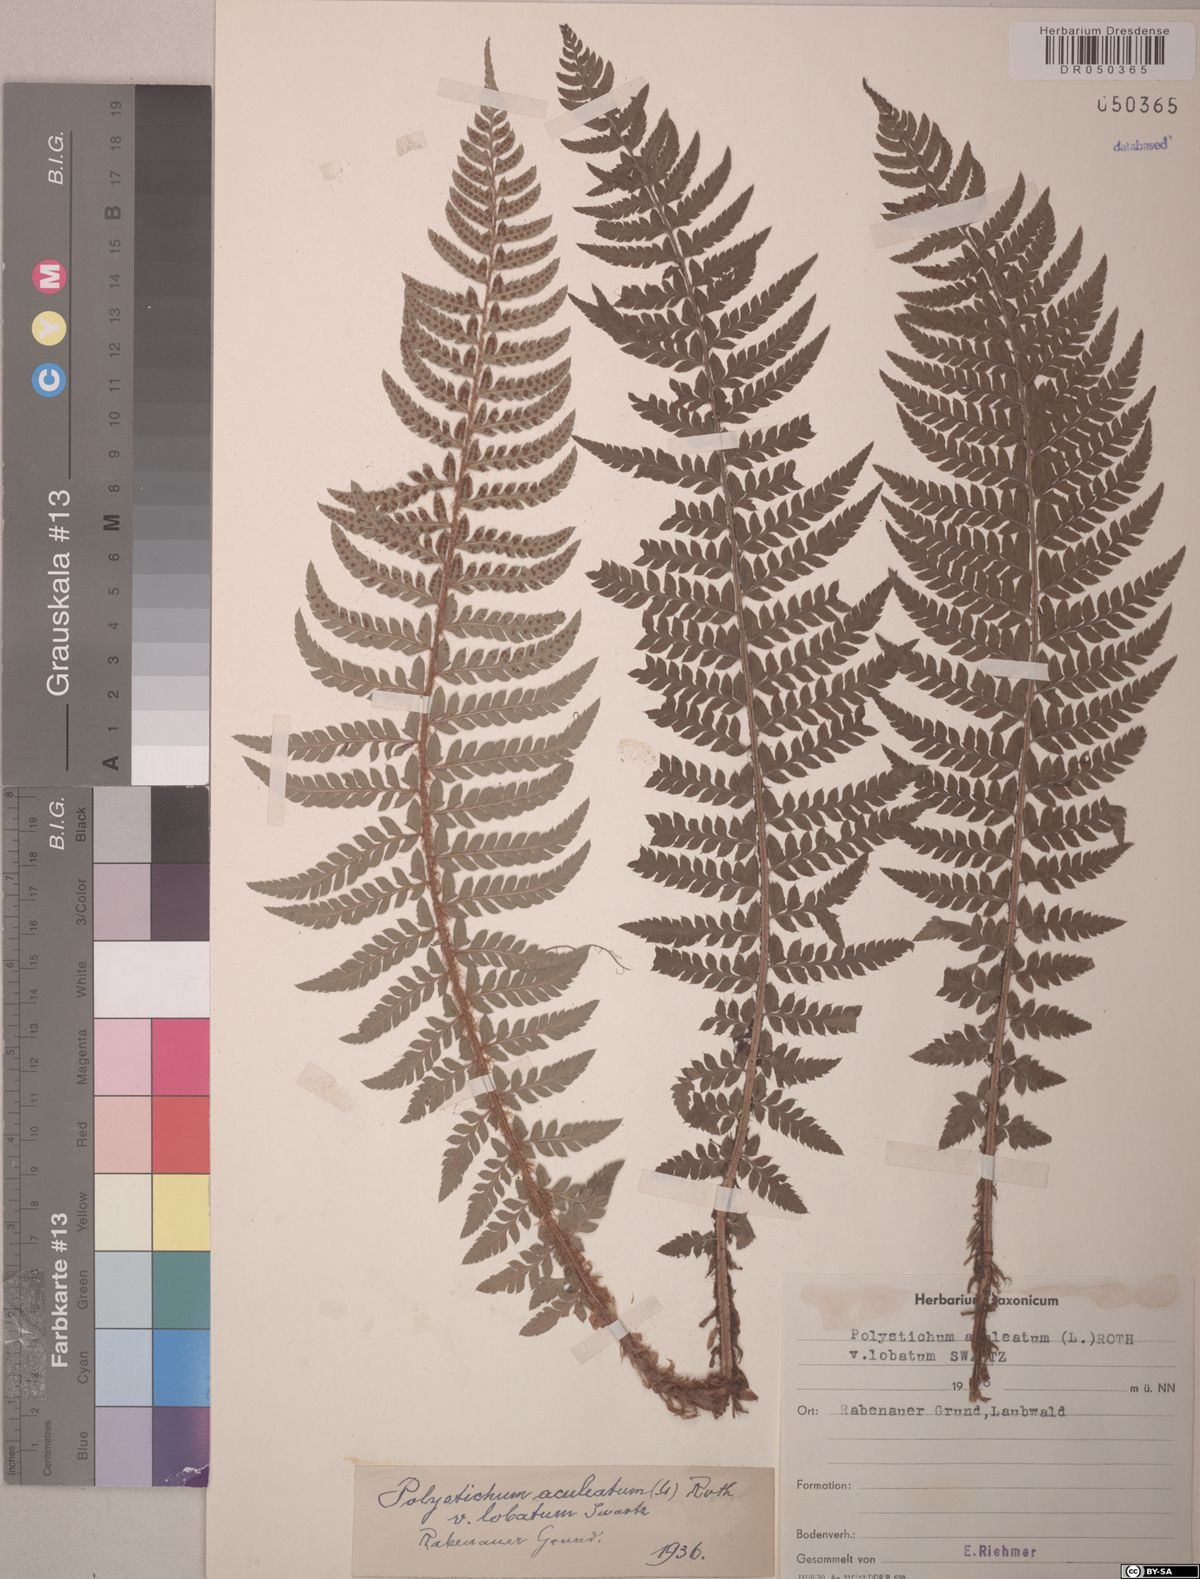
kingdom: Plantae
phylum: Tracheophyta
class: Polypodiopsida
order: Polypodiales
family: Dryopteridaceae
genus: Polystichum
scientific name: Polystichum aculeatum
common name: Hard shield-fern
